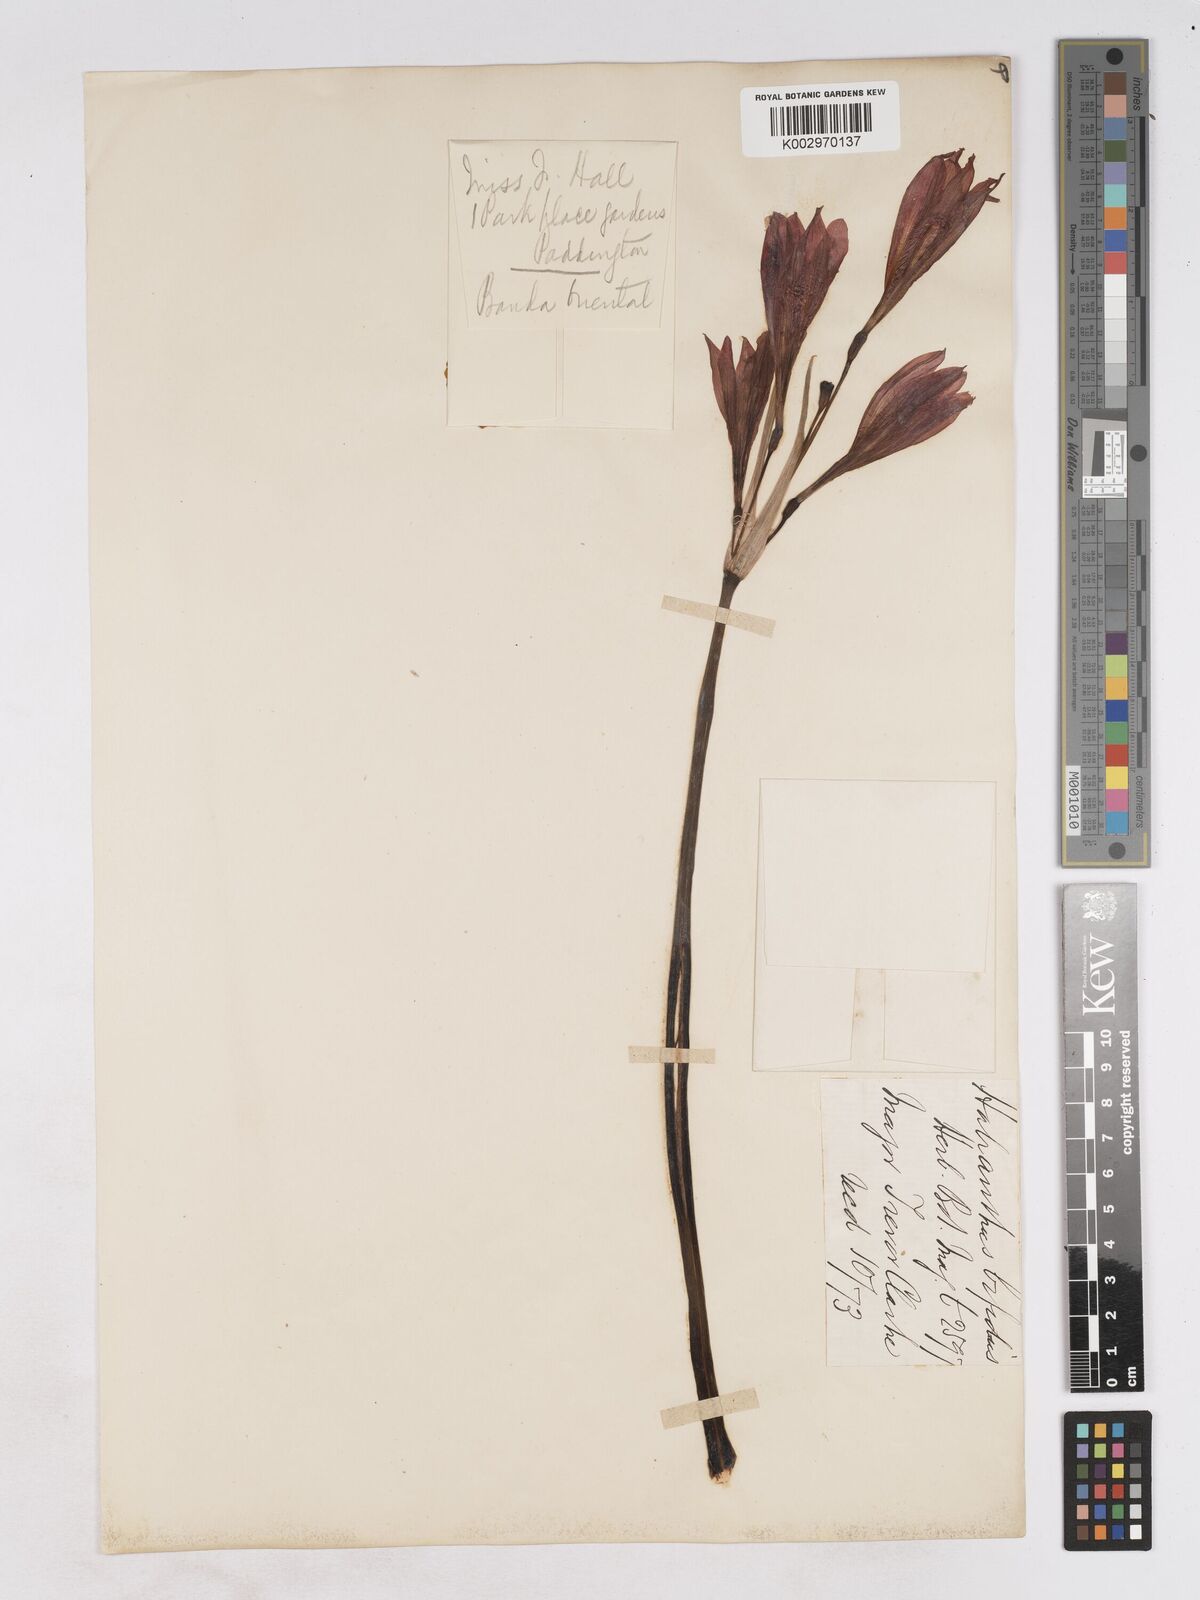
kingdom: Plantae
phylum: Tracheophyta
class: Liliopsida
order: Asparagales
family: Amaryllidaceae
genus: Zephyranthes
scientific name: Zephyranthes bifida
